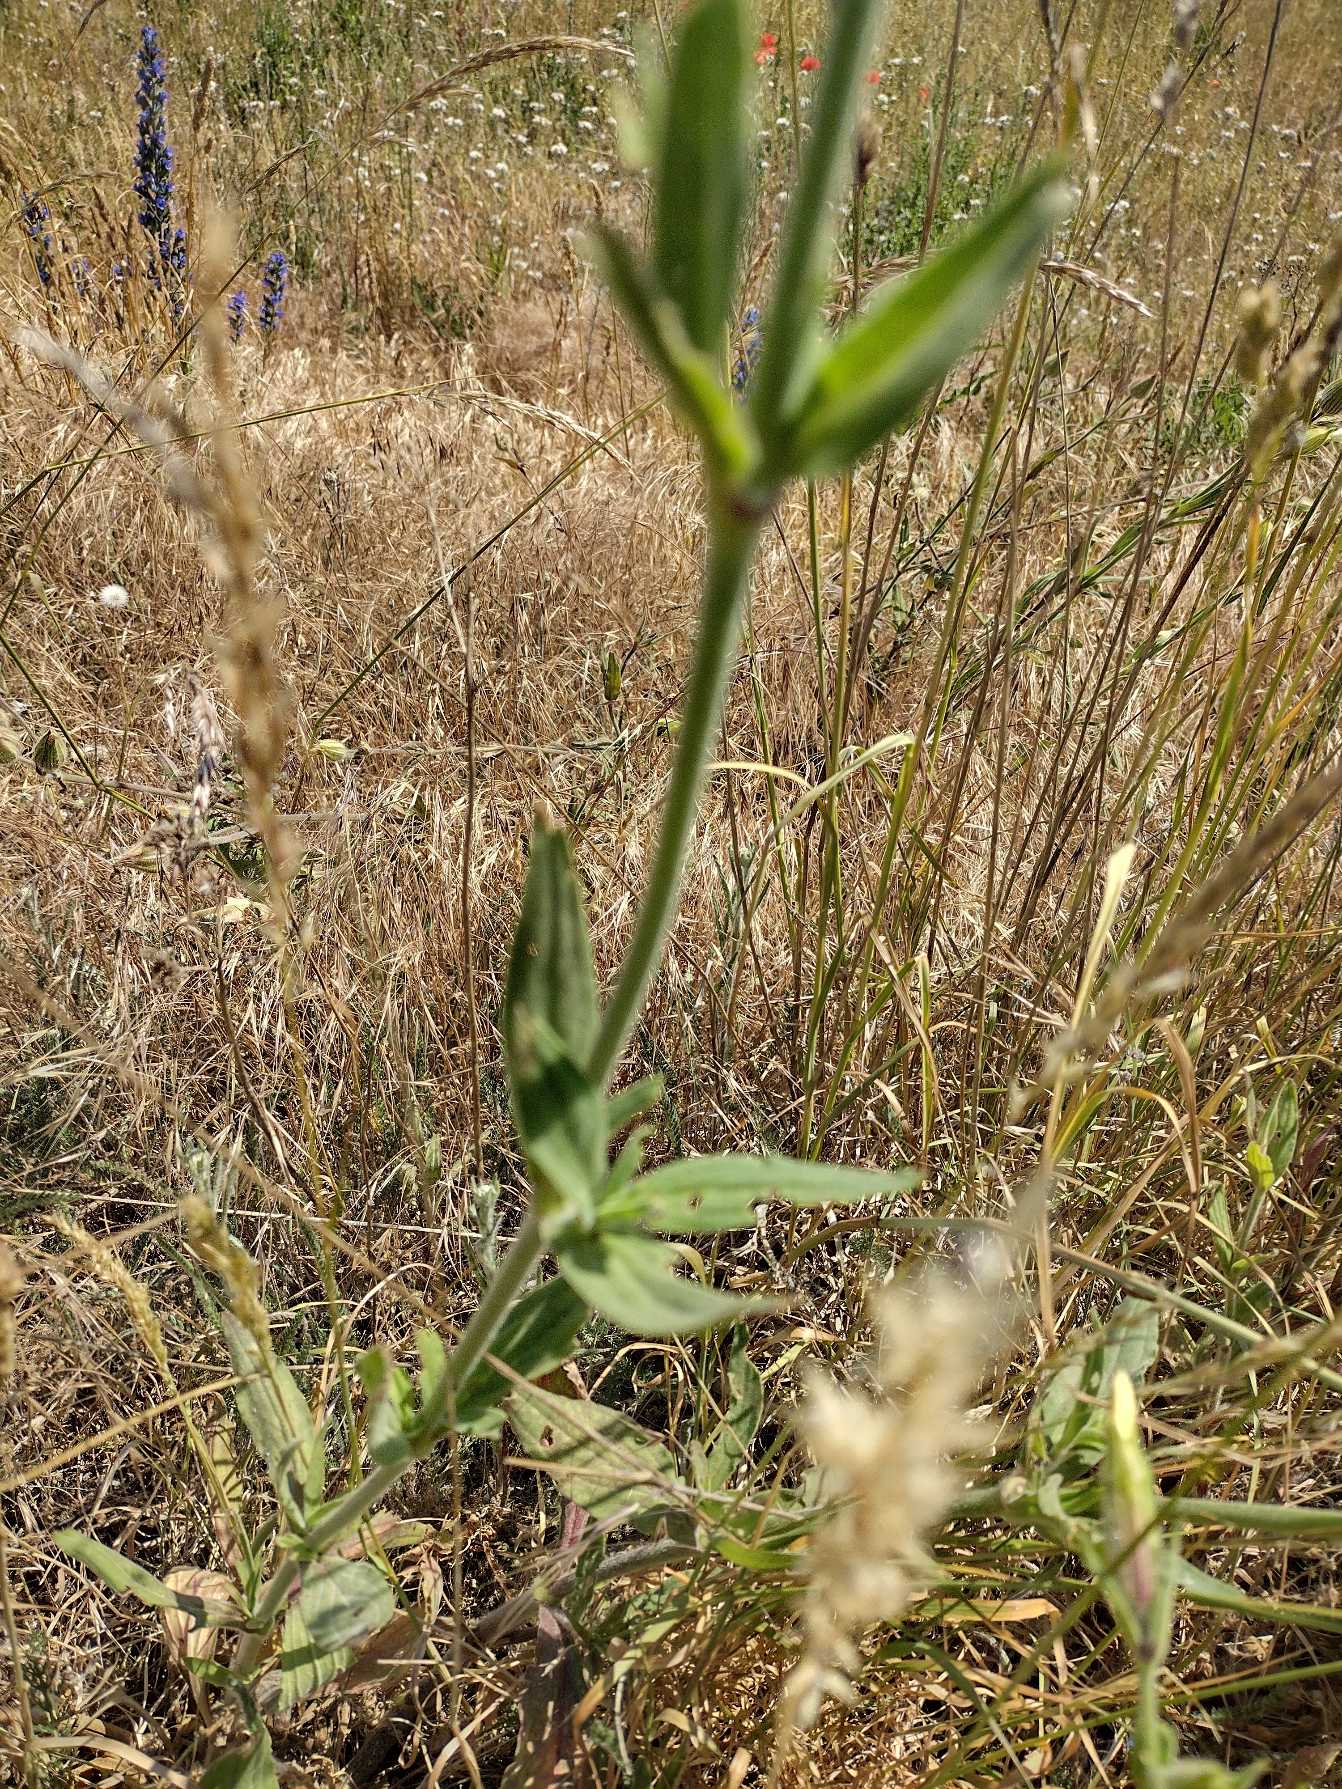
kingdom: Plantae
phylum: Tracheophyta
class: Magnoliopsida
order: Caryophyllales
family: Caryophyllaceae
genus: Silene
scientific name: Silene latifolia
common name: Aftenpragtstjerne
